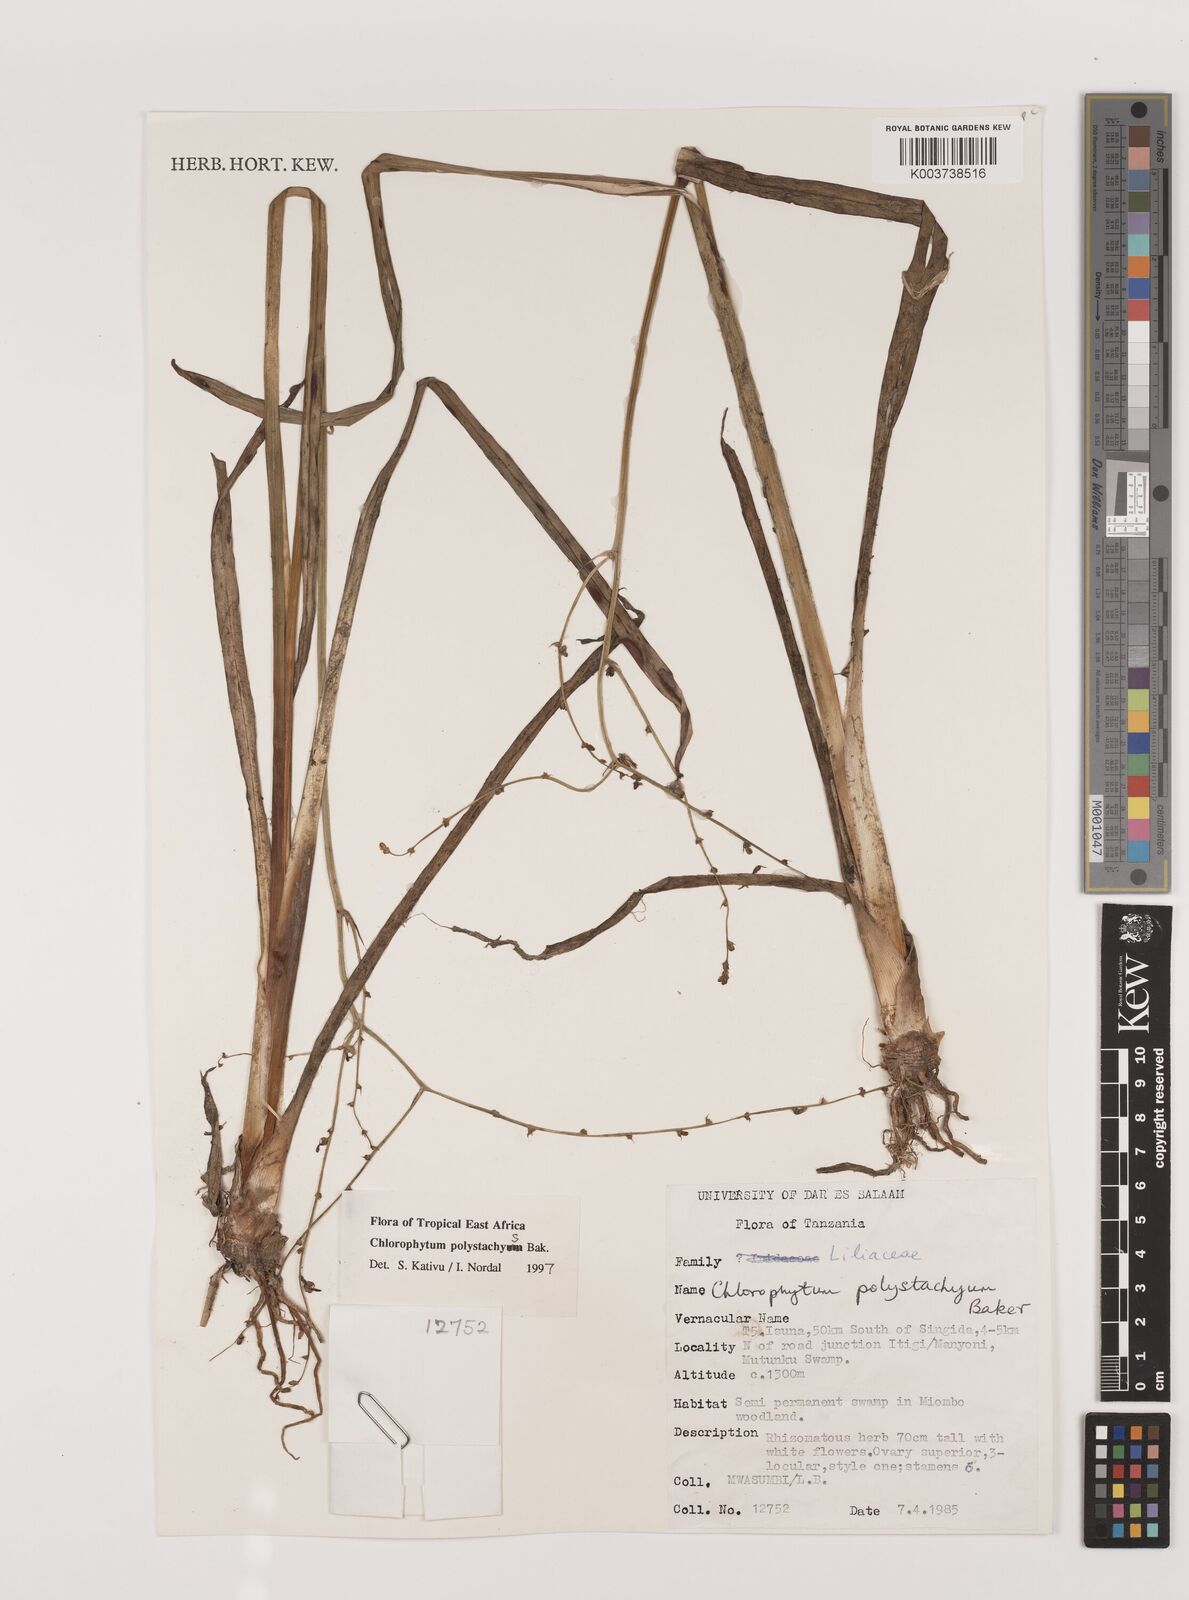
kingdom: Plantae
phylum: Tracheophyta
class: Liliopsida
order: Asparagales
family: Asparagaceae
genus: Chlorophytum
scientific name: Chlorophytum polystachys
